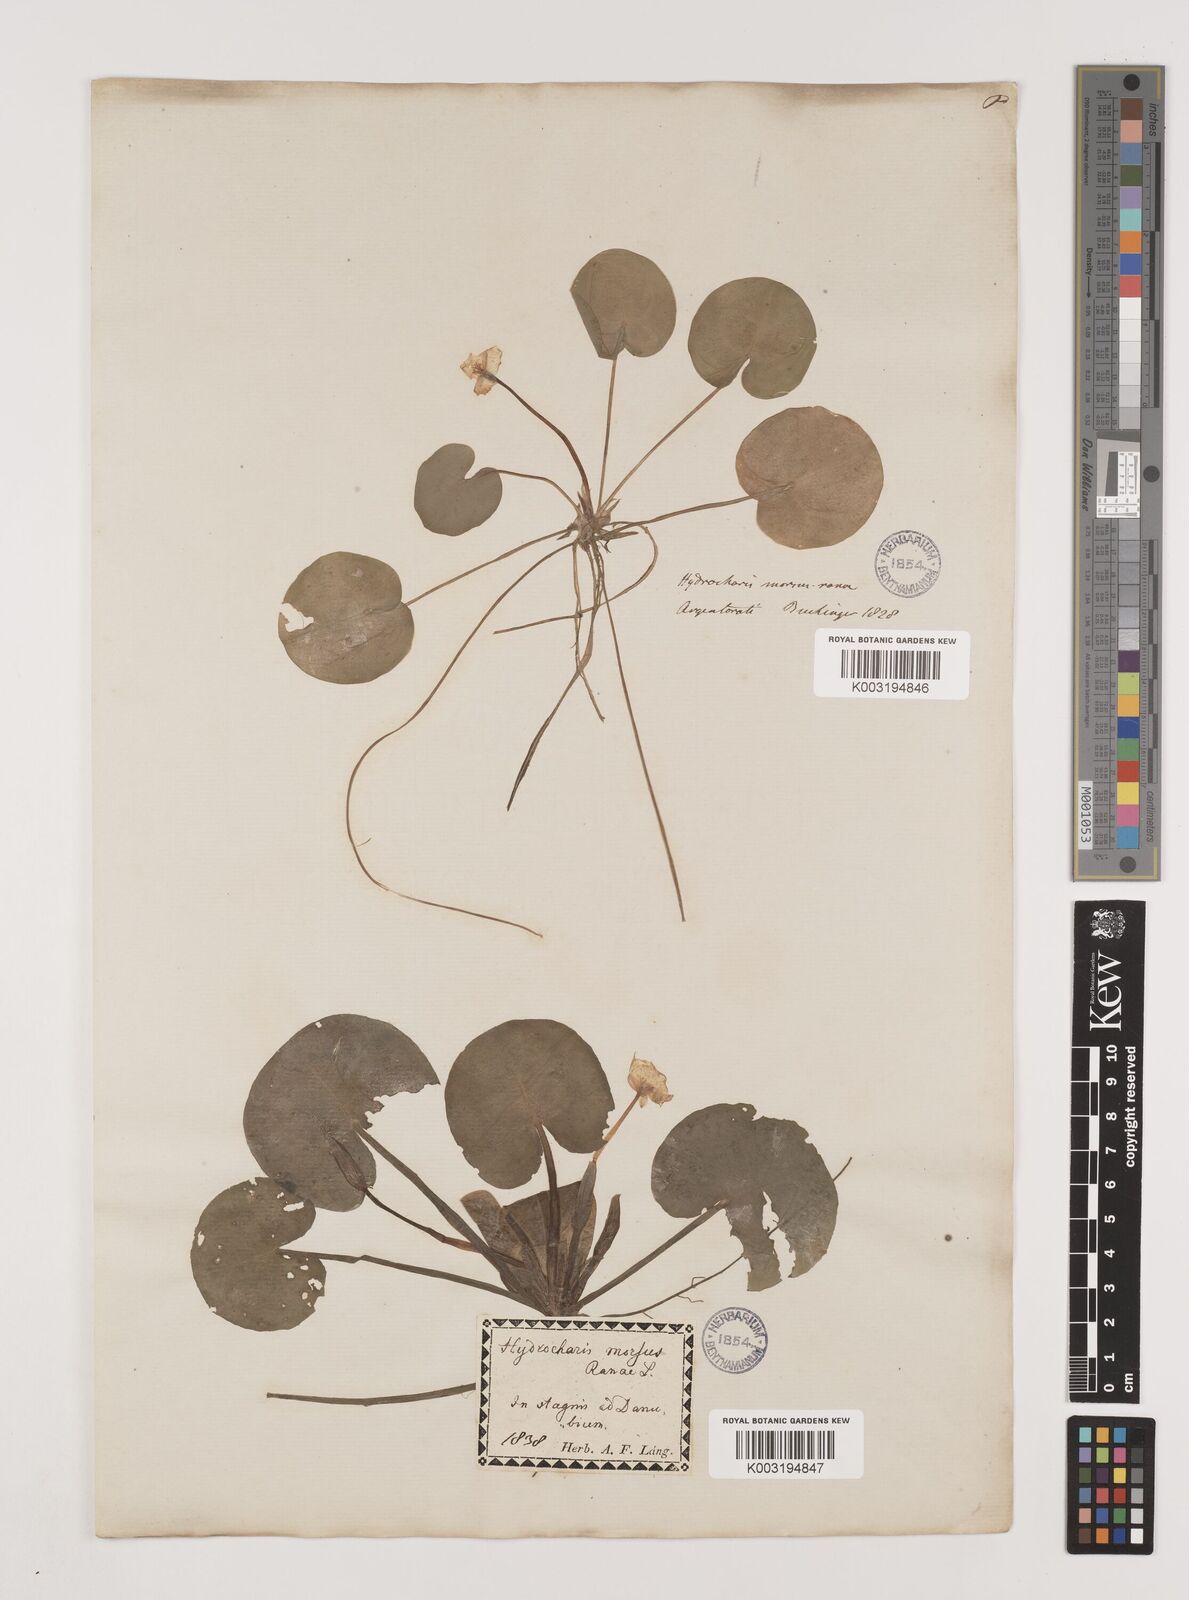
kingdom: Plantae
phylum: Tracheophyta
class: Liliopsida
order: Alismatales
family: Hydrocharitaceae
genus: Hydrocharis
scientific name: Hydrocharis morsus-ranae
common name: Frogbit
